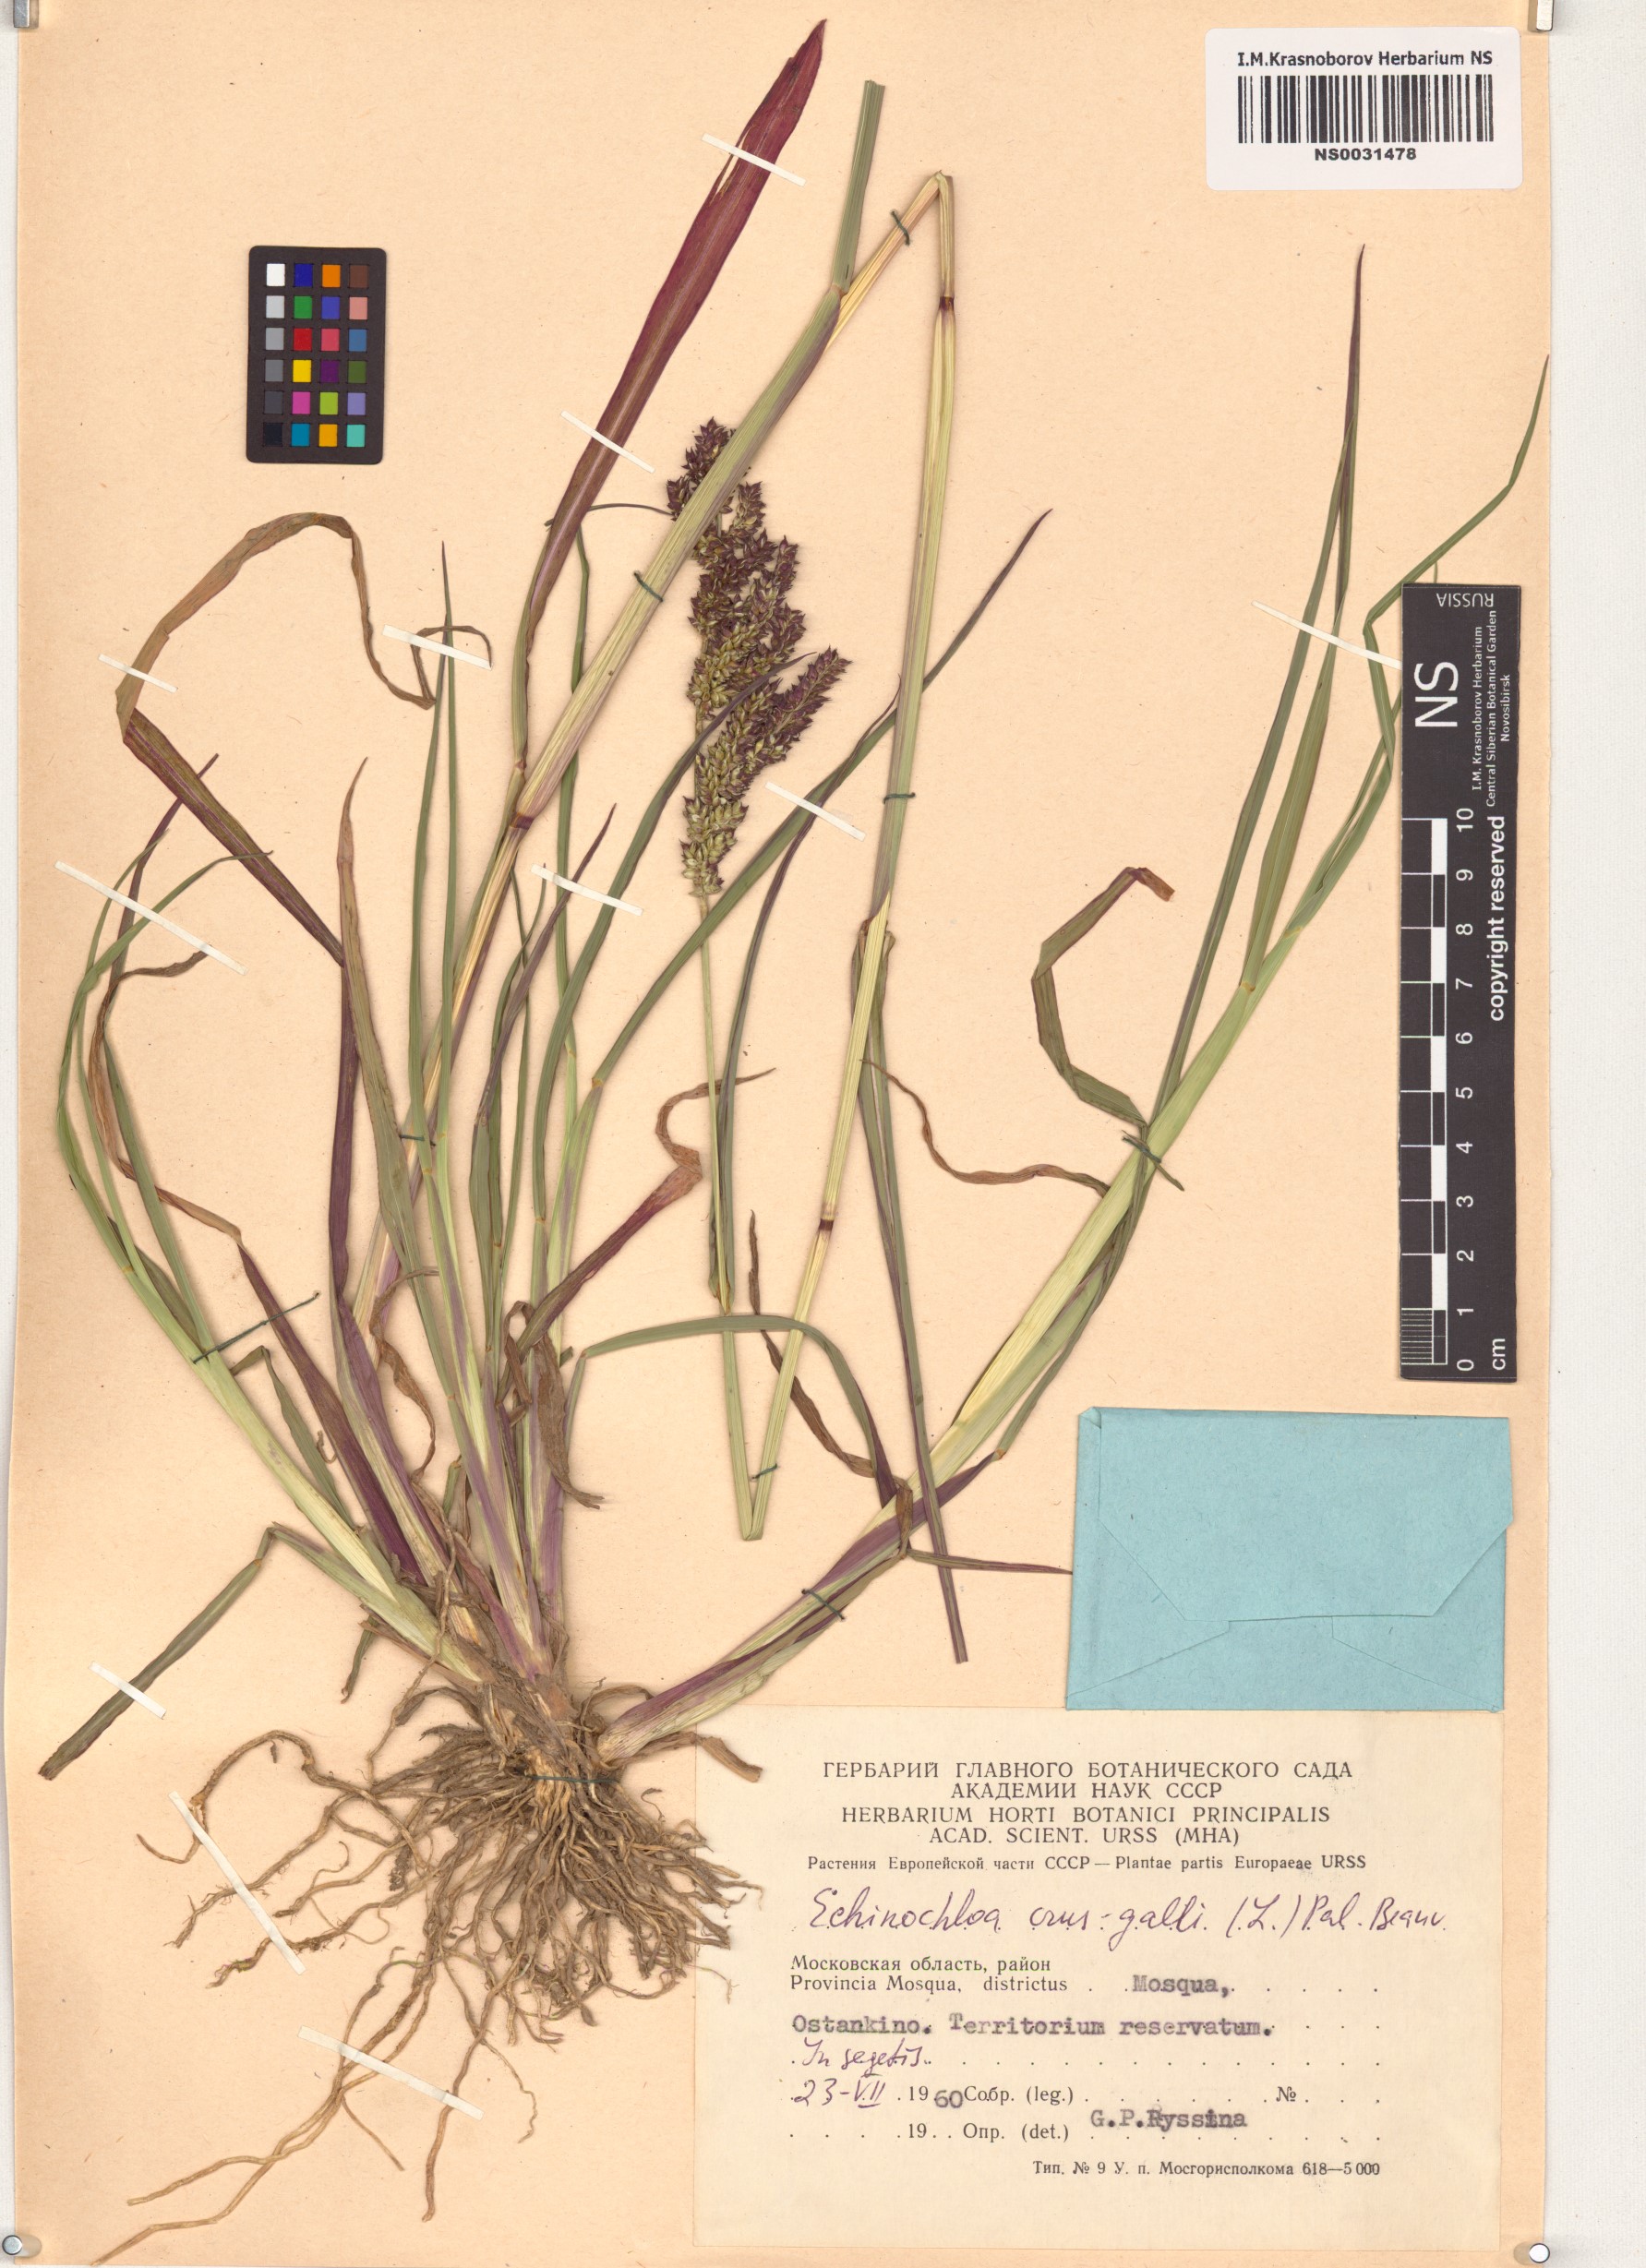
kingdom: Plantae
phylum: Tracheophyta
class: Liliopsida
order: Poales
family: Poaceae
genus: Echinochloa
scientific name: Echinochloa crus-galli
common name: Cockspur
